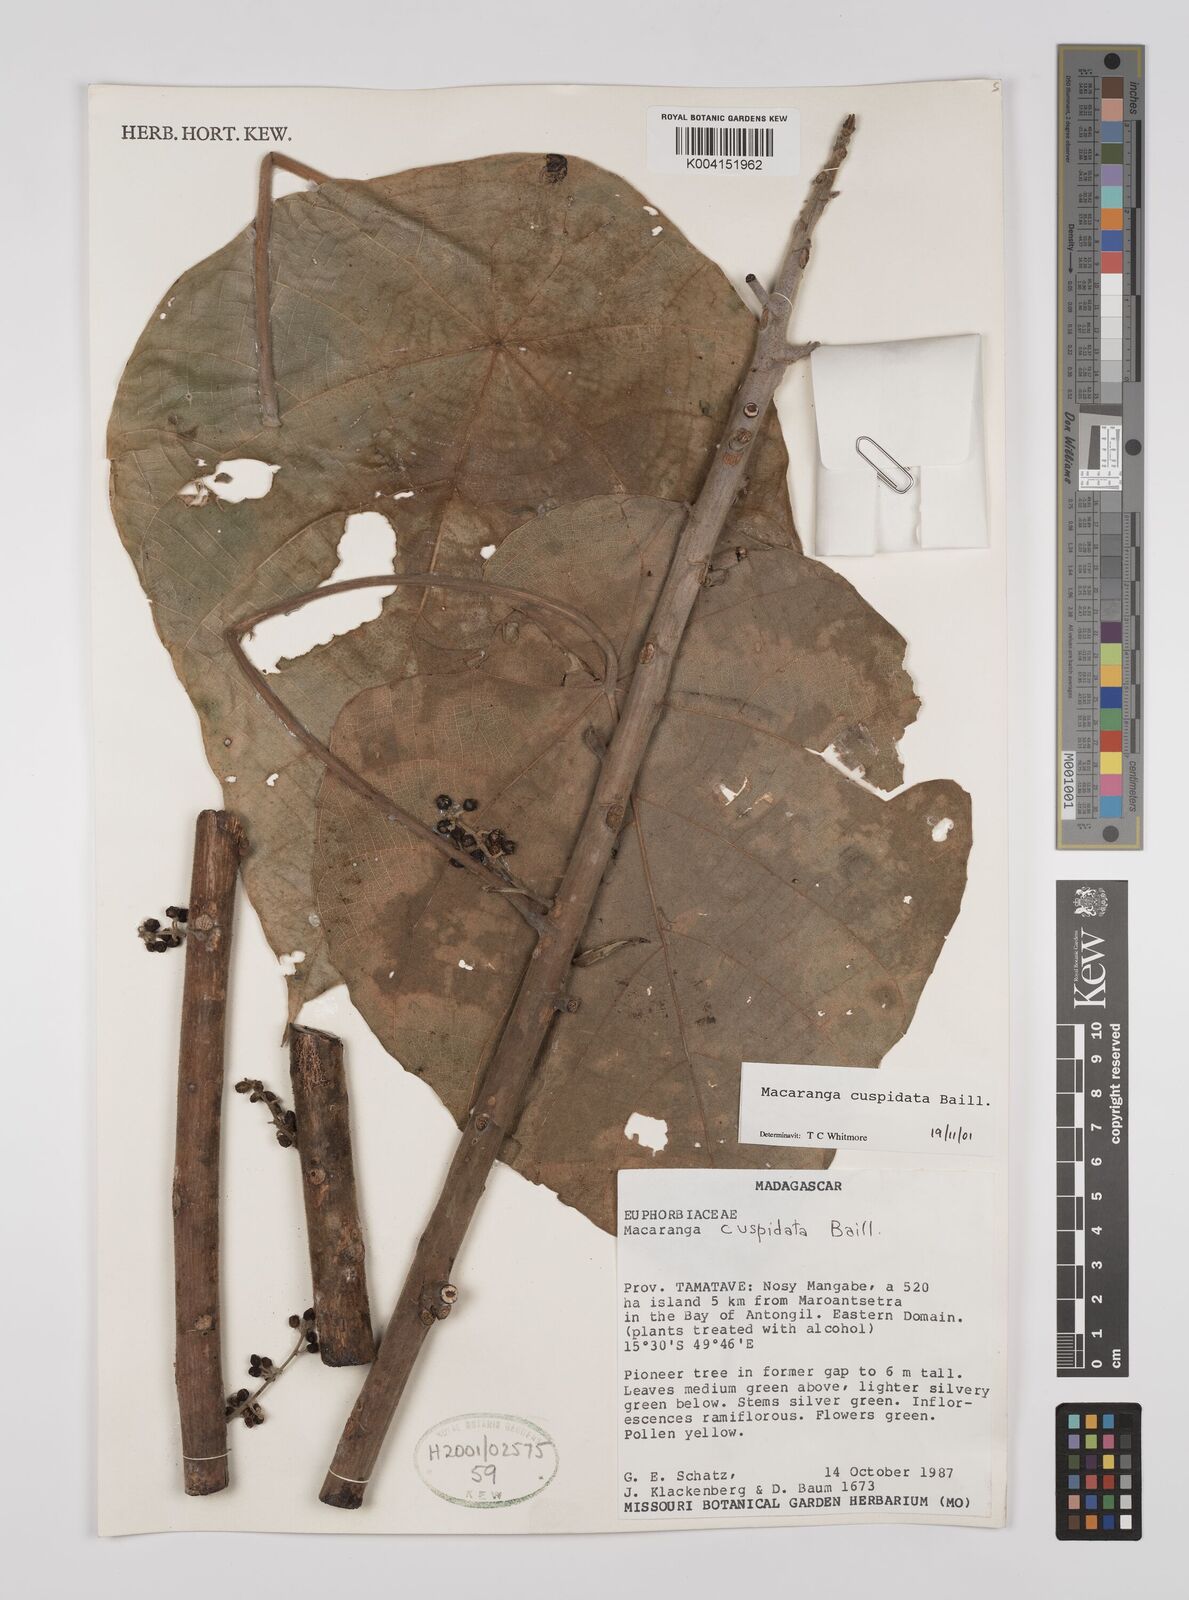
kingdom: Plantae
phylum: Tracheophyta
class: Magnoliopsida
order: Malpighiales
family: Euphorbiaceae
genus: Macaranga
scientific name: Macaranga cuspidata
